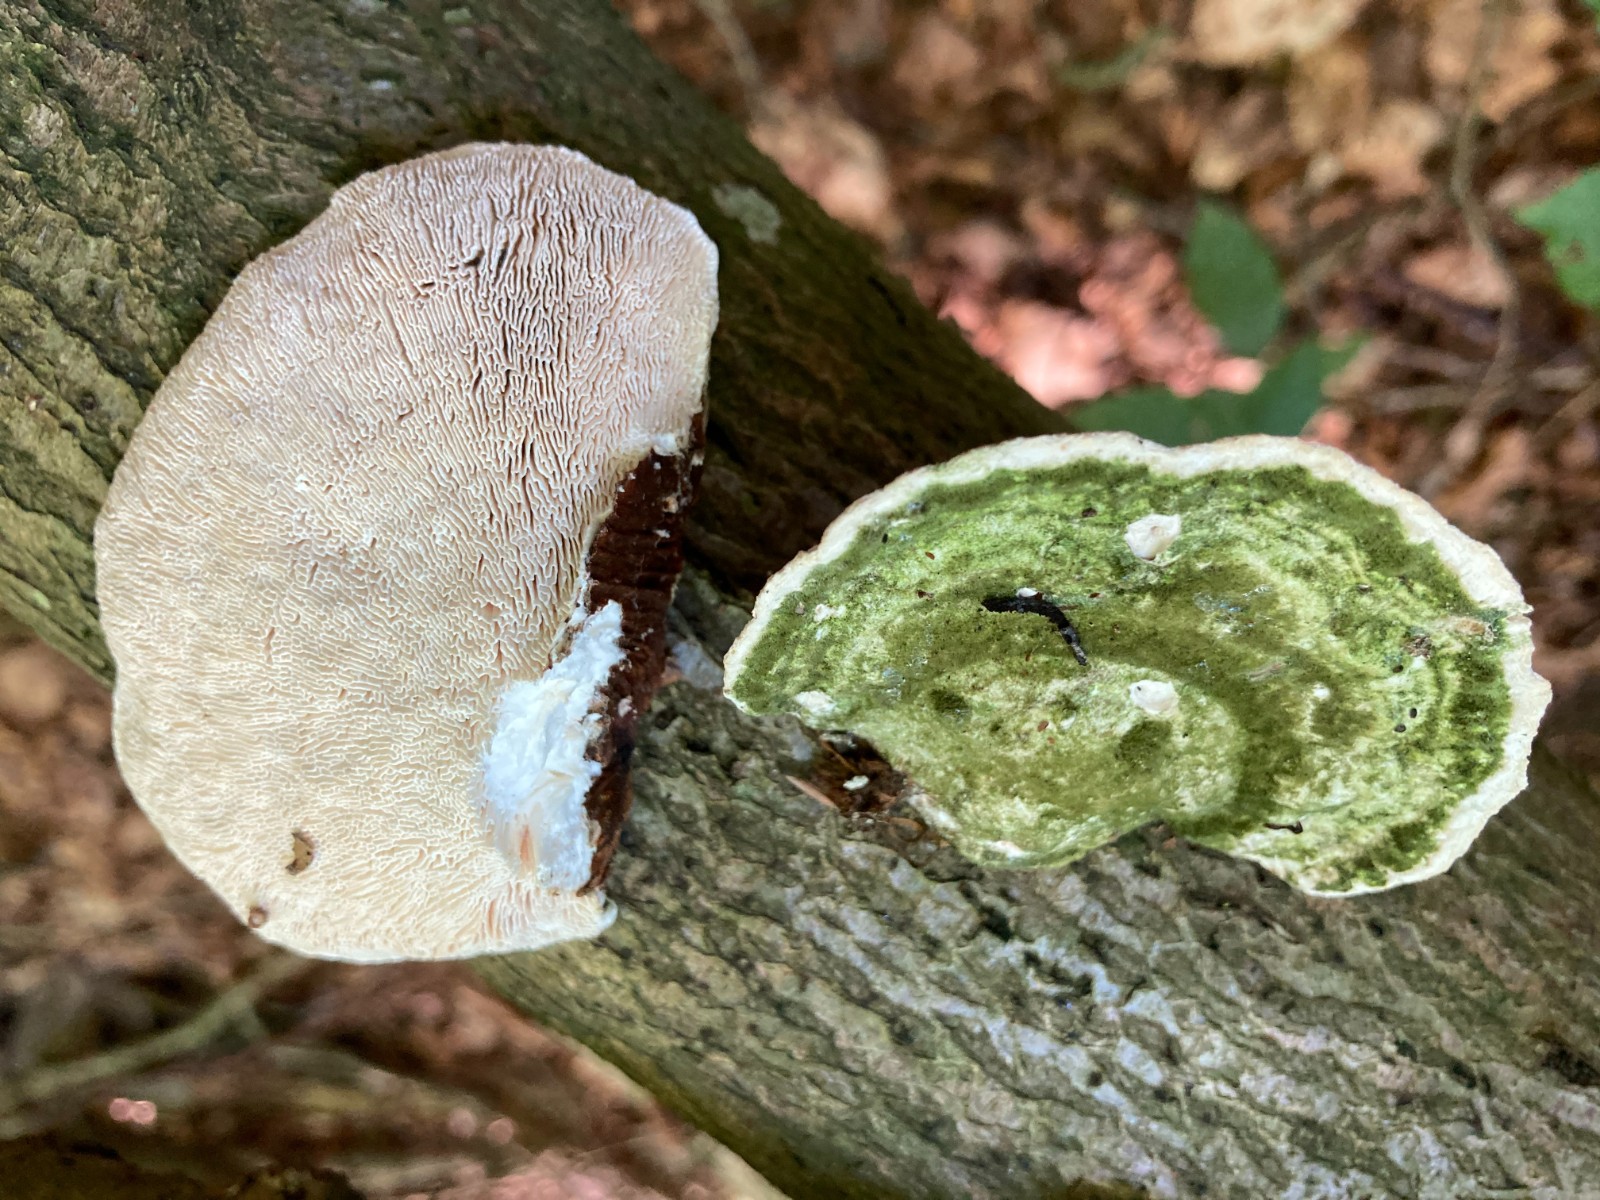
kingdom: Fungi
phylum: Basidiomycota
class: Agaricomycetes
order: Polyporales
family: Polyporaceae
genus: Trametes
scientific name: Trametes gibbosa
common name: puklet læderporesvamp
